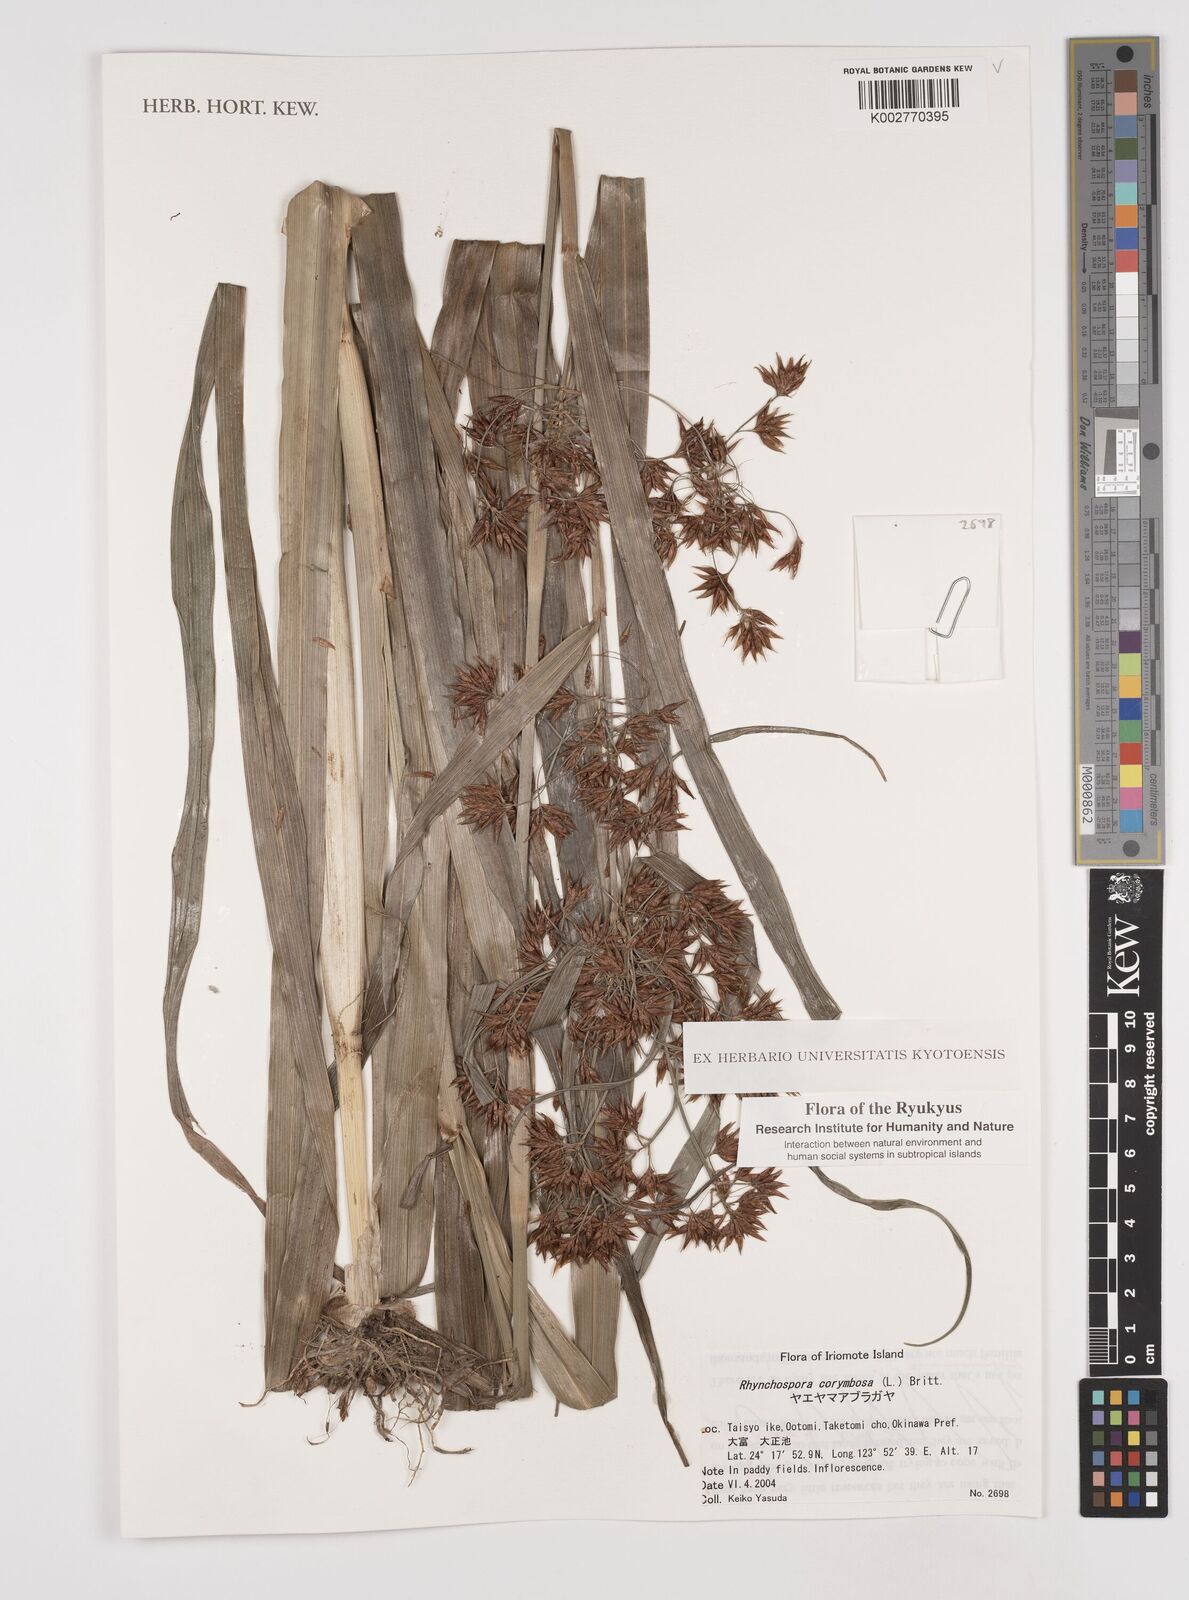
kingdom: Plantae
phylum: Tracheophyta
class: Liliopsida
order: Poales
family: Cyperaceae
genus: Rhynchospora
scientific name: Rhynchospora corymbosa
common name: Golden beak sedge
